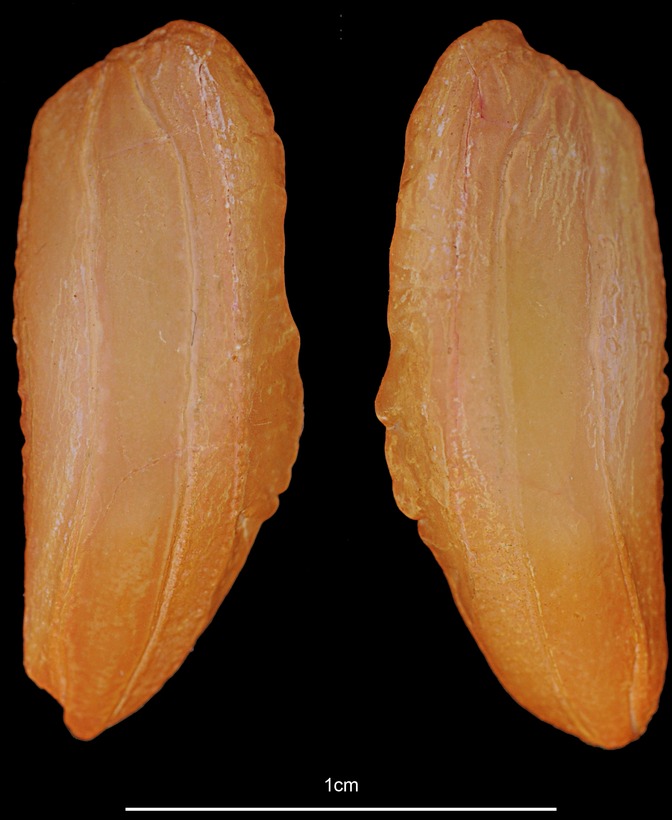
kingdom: Animalia
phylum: Chordata
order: Gadiformes
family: Phycidae
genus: Phycis
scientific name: Phycis blennoides
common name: Forked hake
